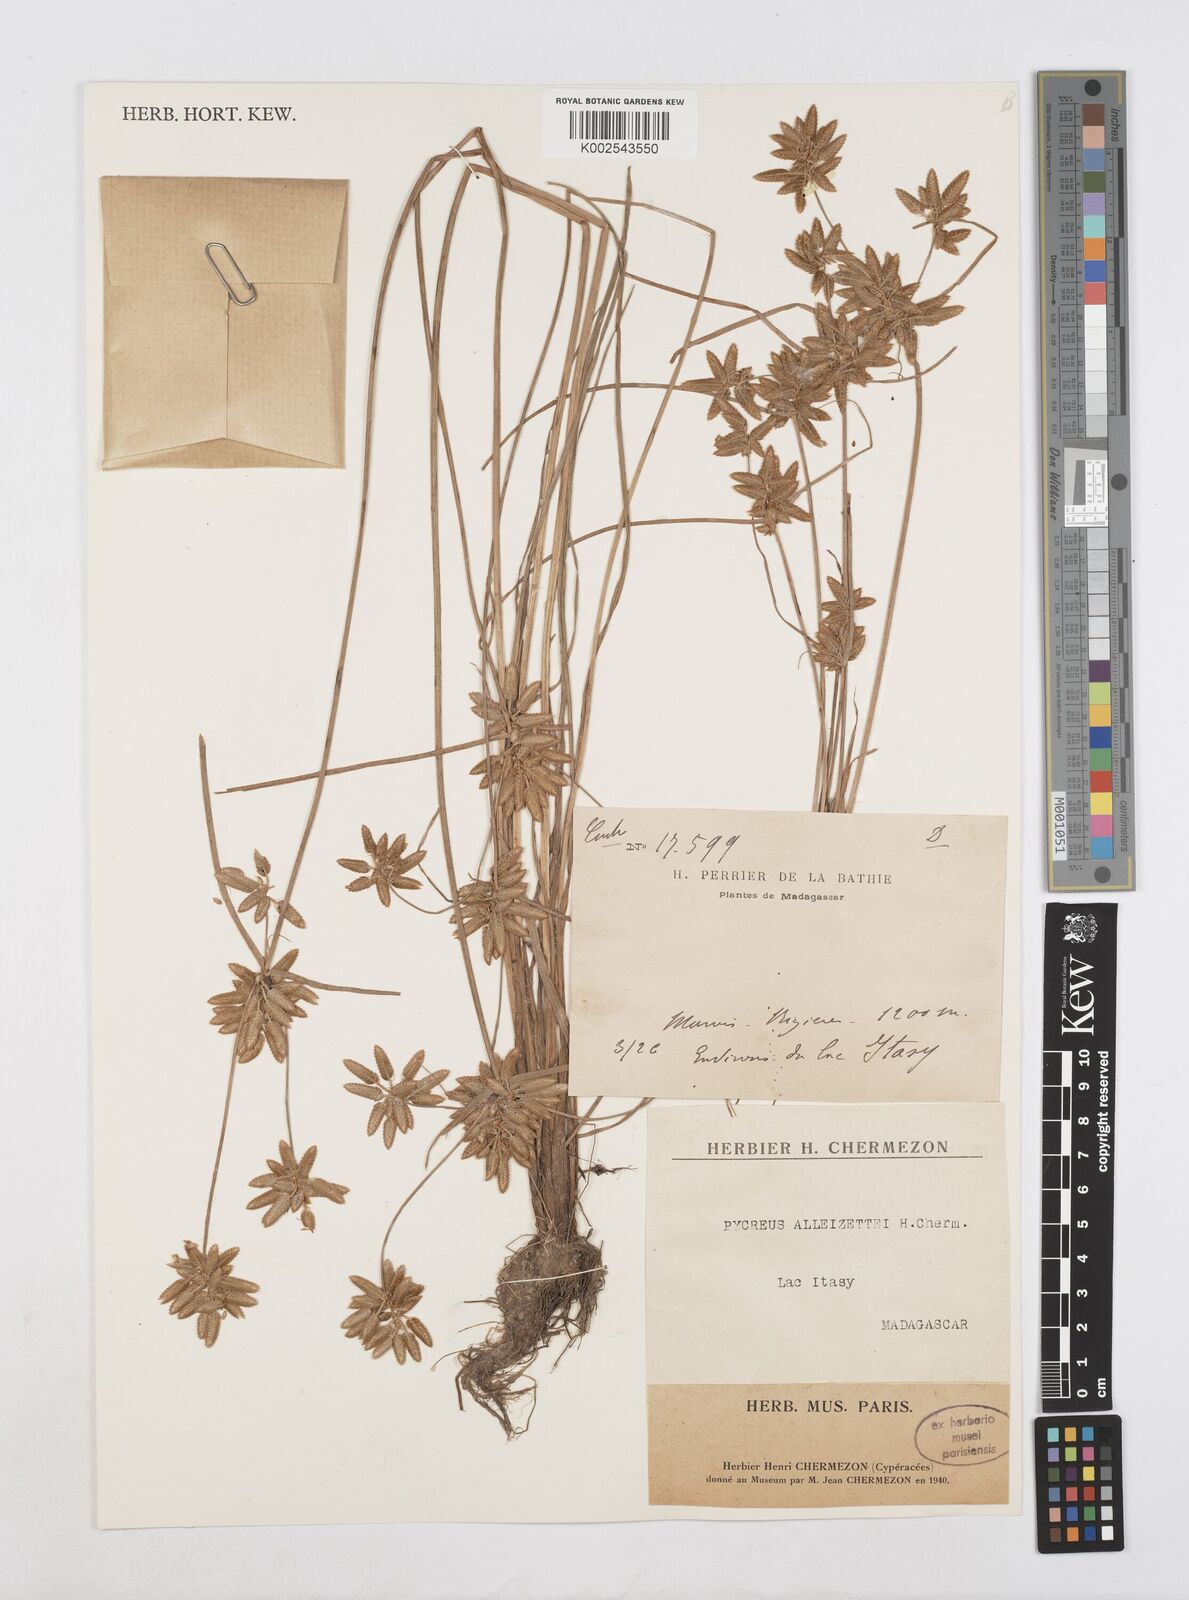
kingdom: Plantae
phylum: Tracheophyta
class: Liliopsida
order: Poales
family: Cyperaceae
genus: Cyperus
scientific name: Cyperus alleizettei
